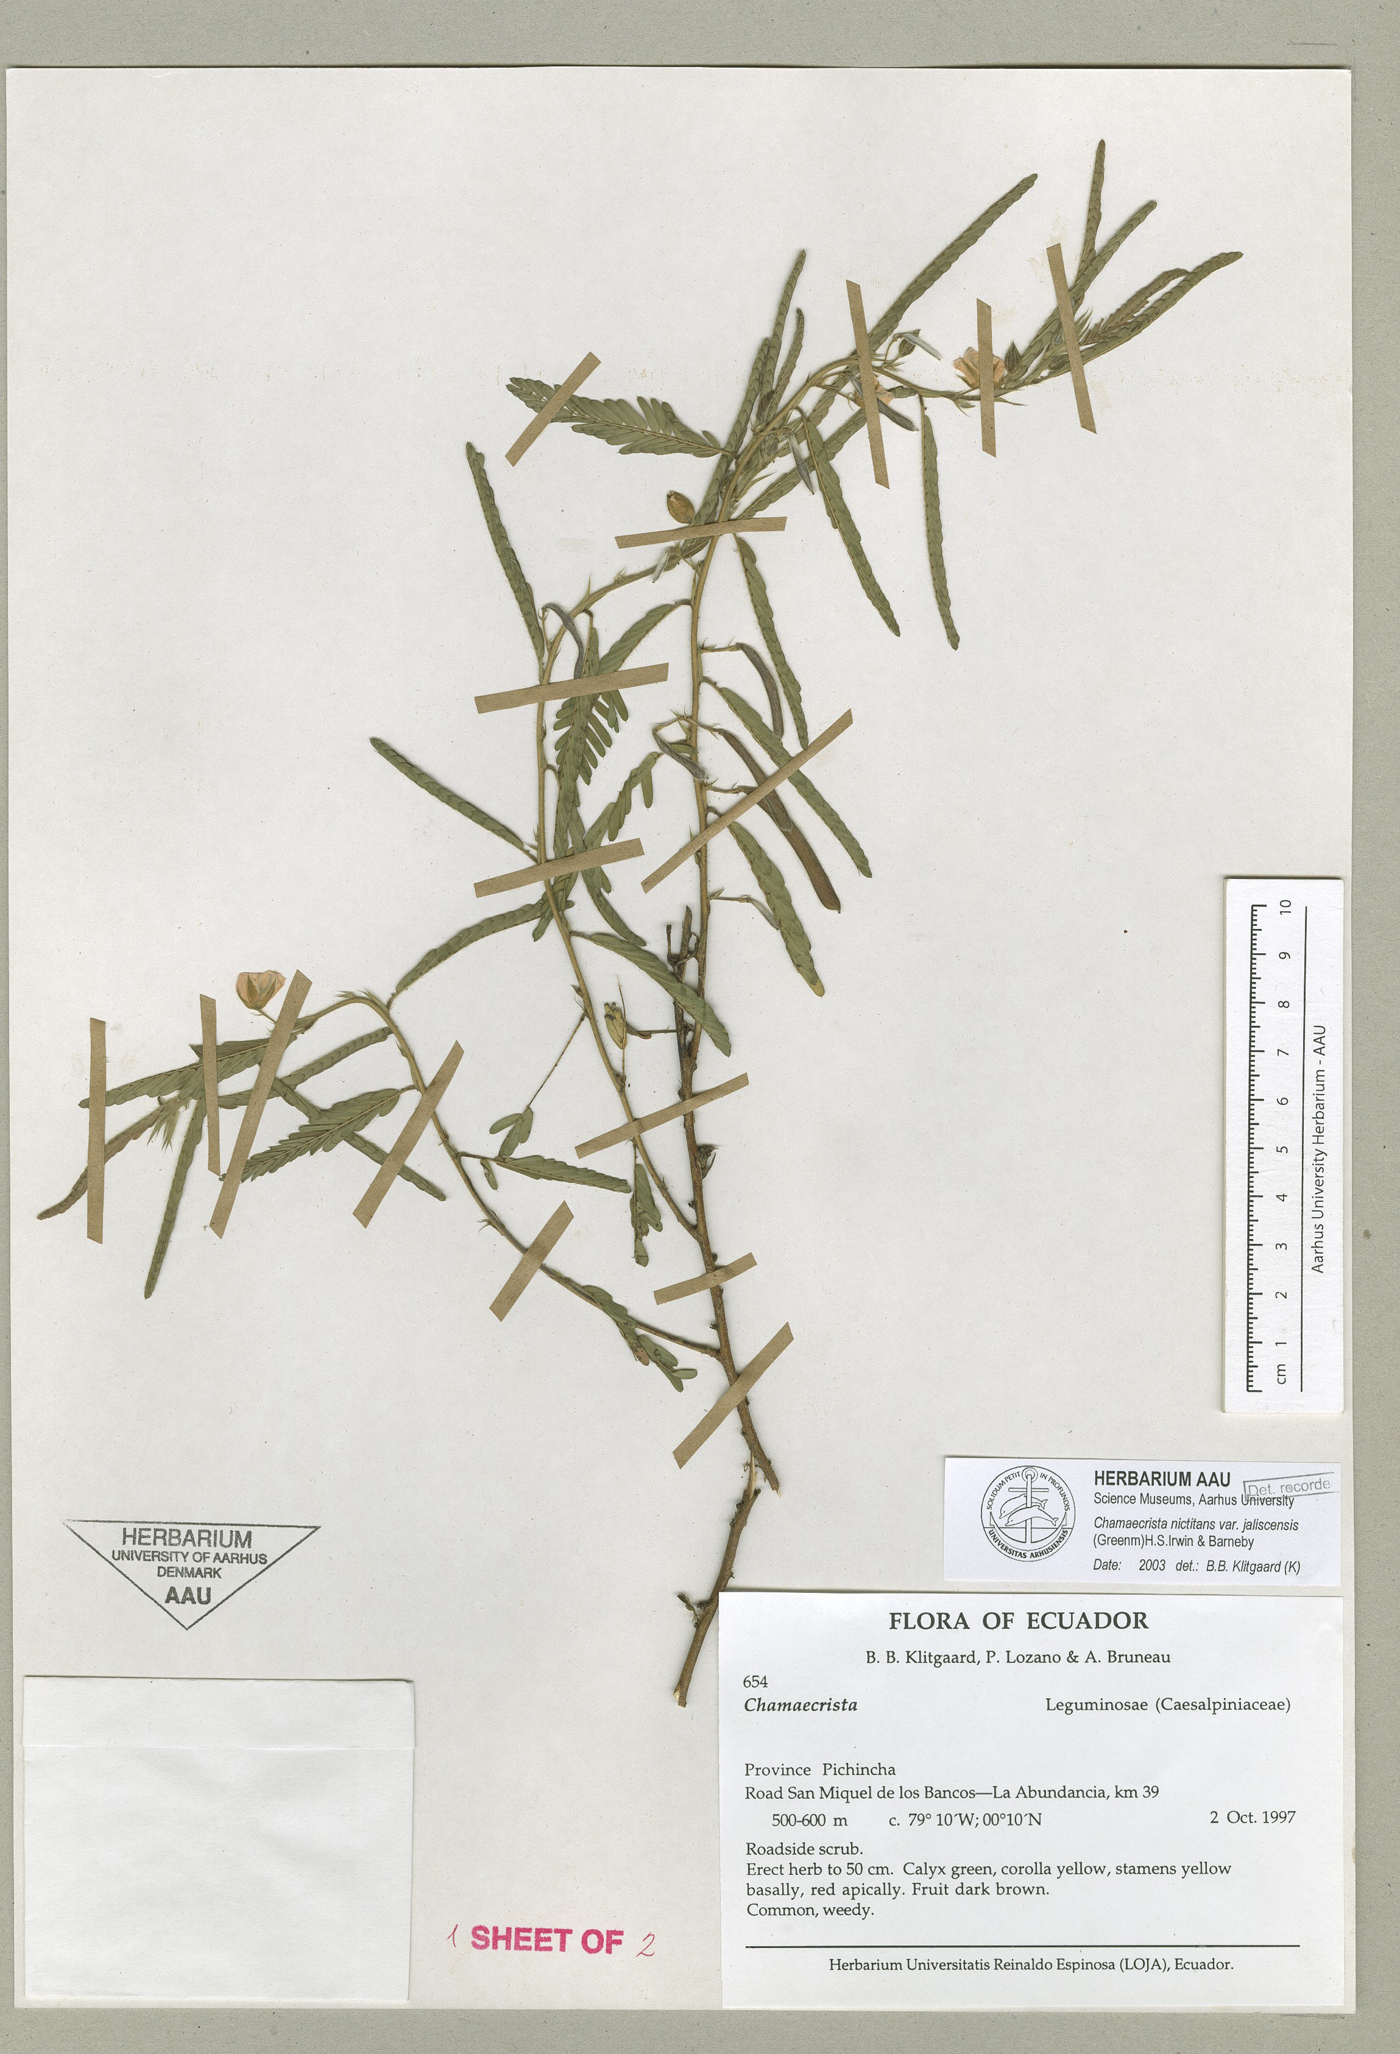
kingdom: Plantae
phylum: Tracheophyta
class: Magnoliopsida
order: Fabales
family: Fabaceae
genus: Chamaecrista
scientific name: Chamaecrista nictitans
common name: Sensitive cassia
